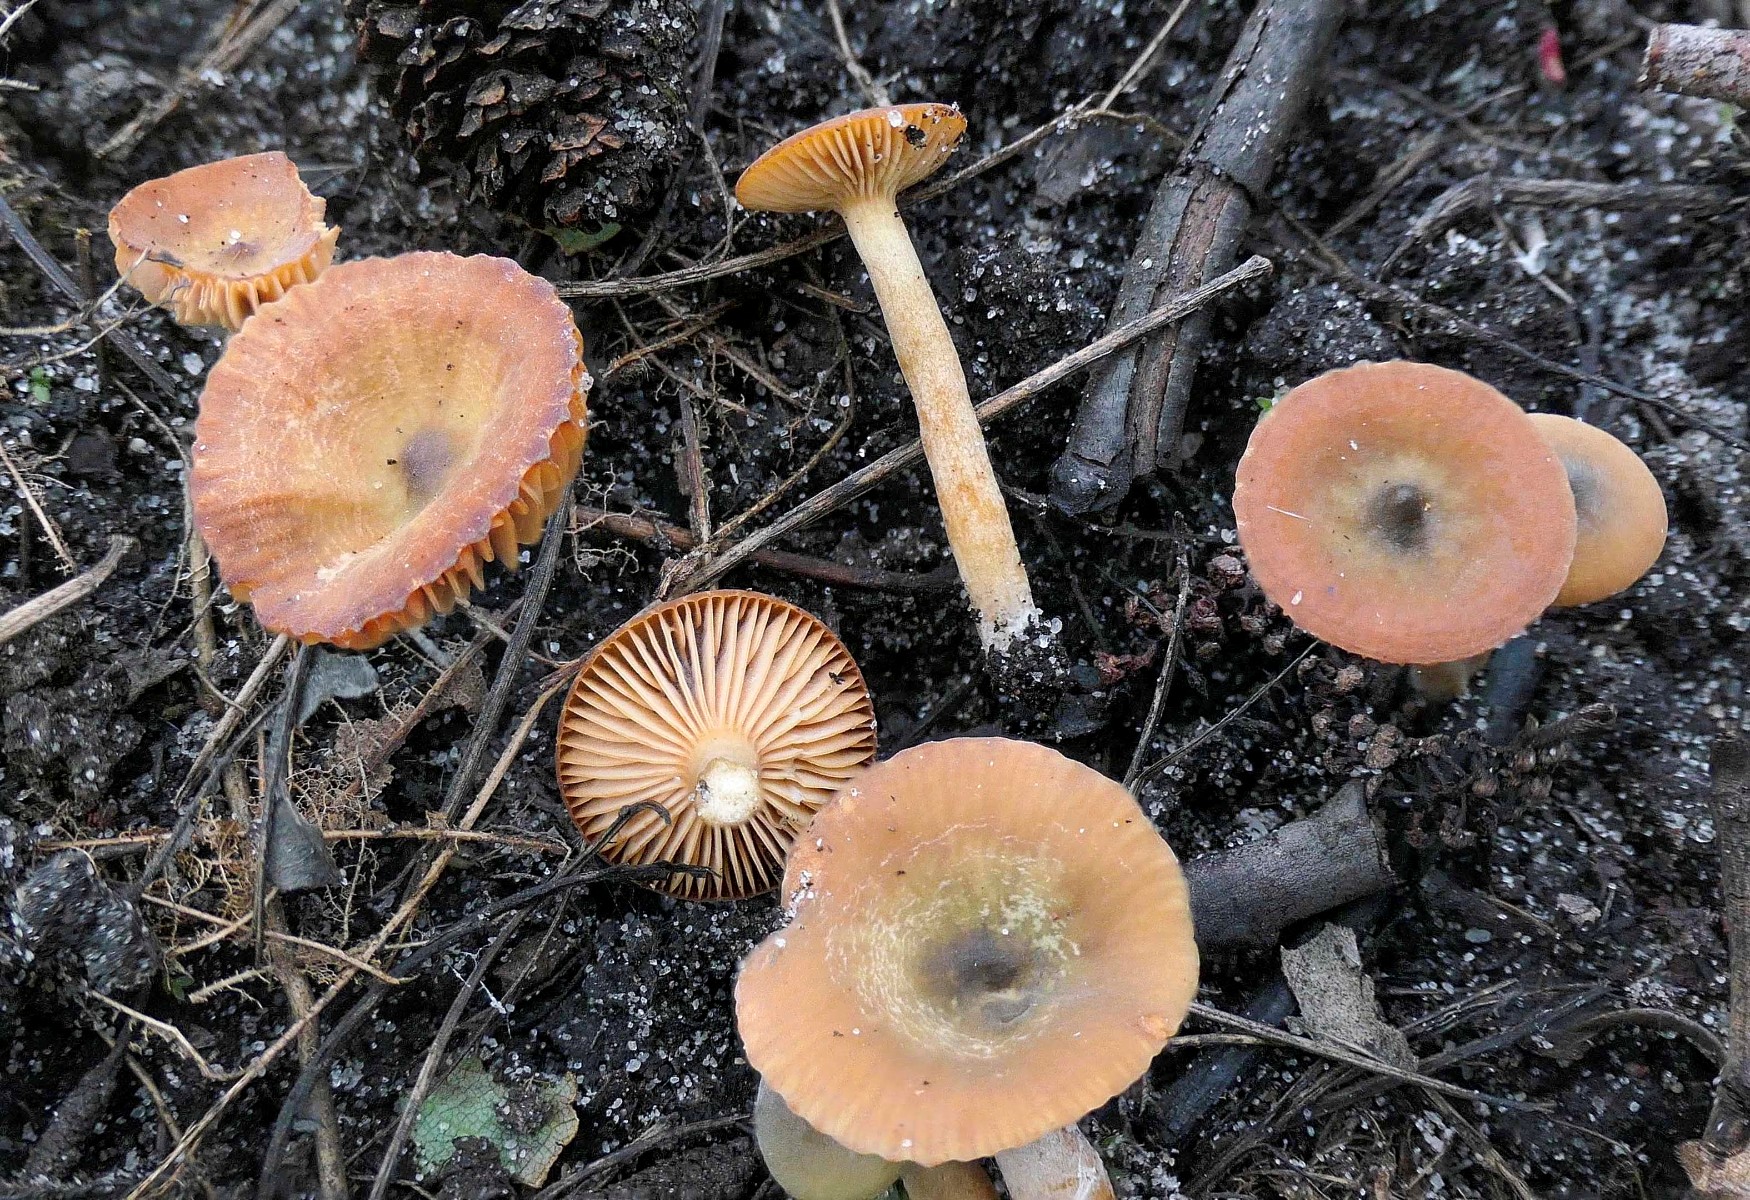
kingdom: Fungi
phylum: Basidiomycota
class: Agaricomycetes
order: Russulales
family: Russulaceae
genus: Lactarius
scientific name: Lactarius cyathuliformis
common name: mørkøjet mælkehat
